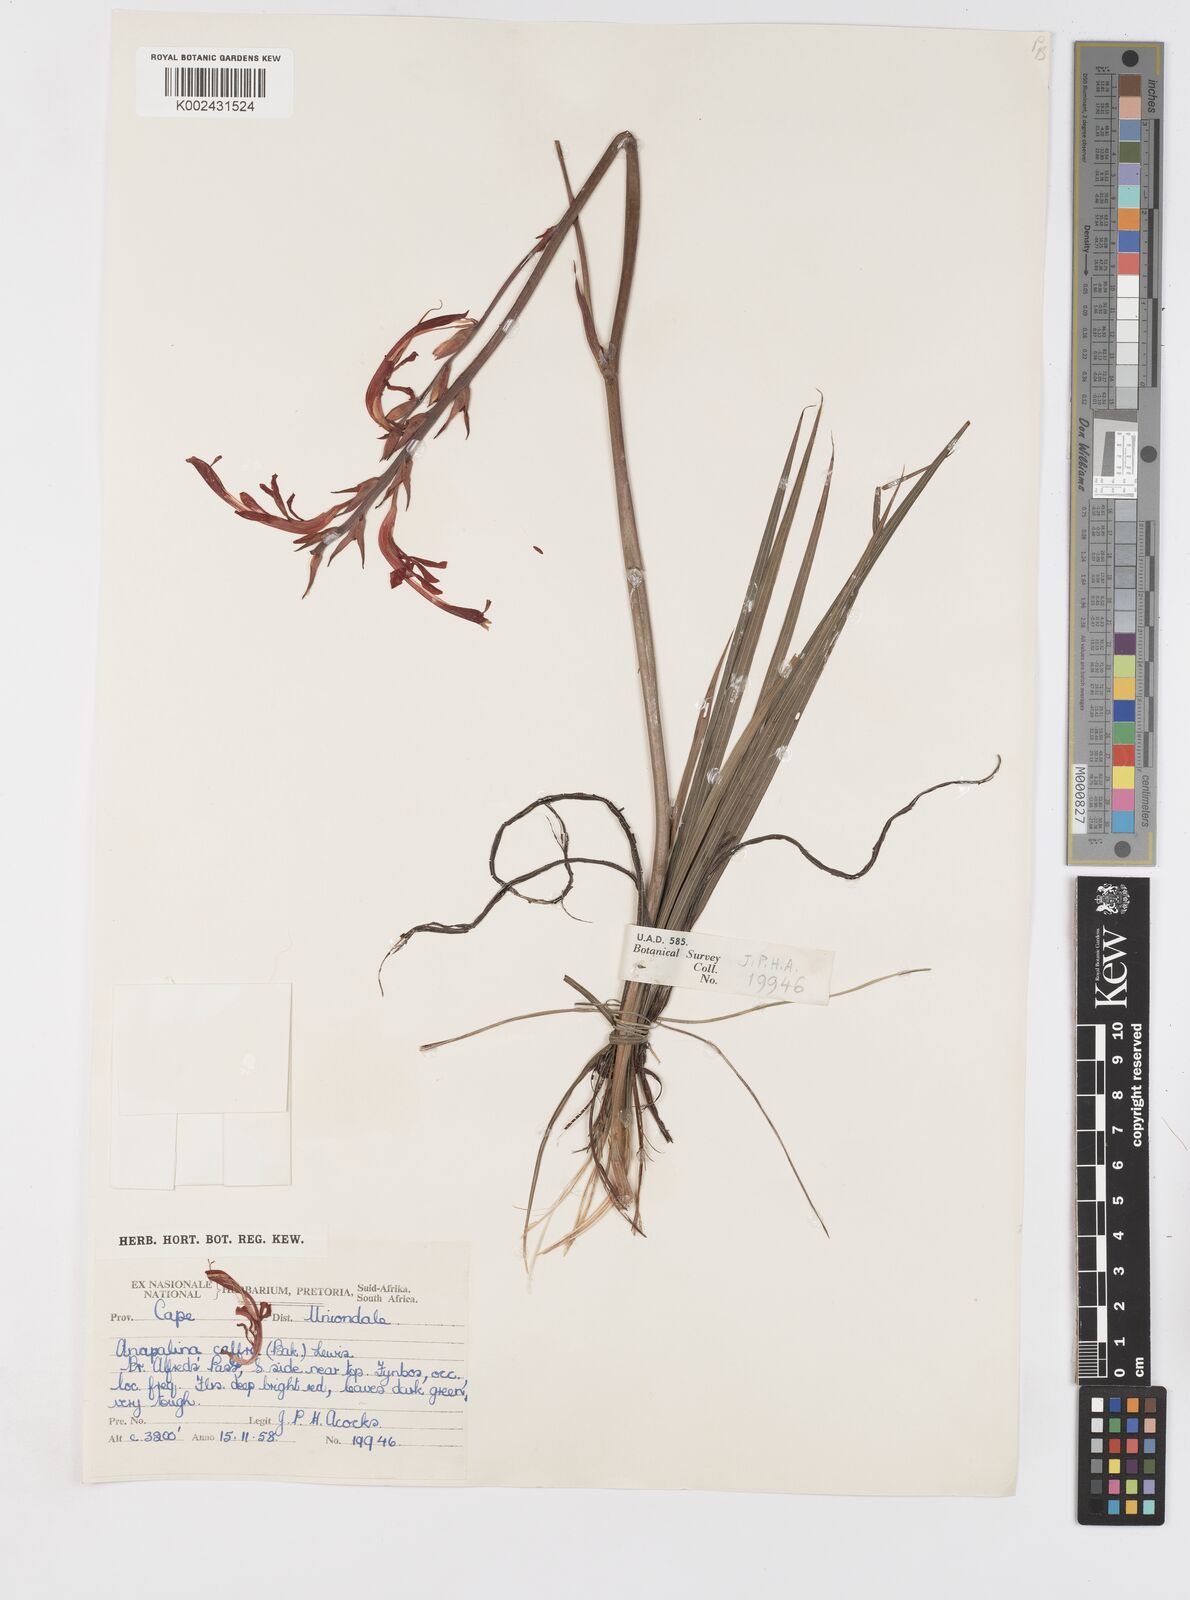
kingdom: Plantae
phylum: Tracheophyta
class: Liliopsida
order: Asparagales
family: Iridaceae
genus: Tritoniopsis
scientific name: Tritoniopsis caffra
